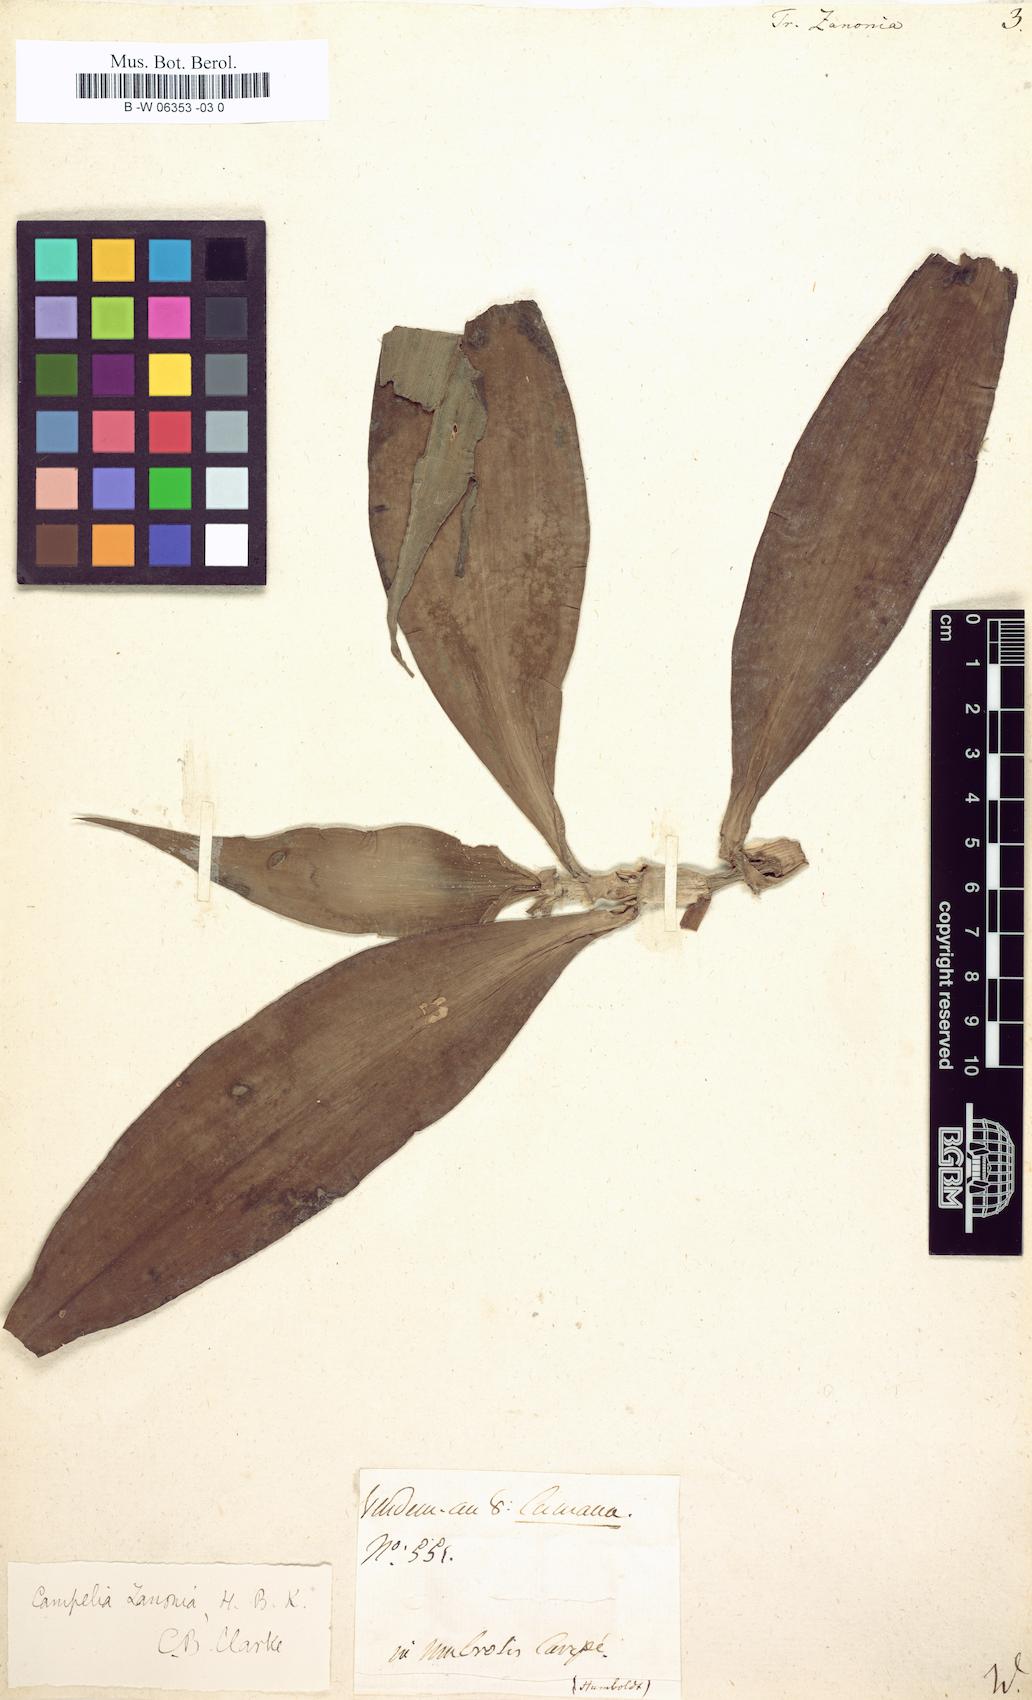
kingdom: Plantae
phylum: Tracheophyta
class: Liliopsida
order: Commelinales
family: Commelinaceae
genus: Tradescantia
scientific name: Tradescantia zanonia
